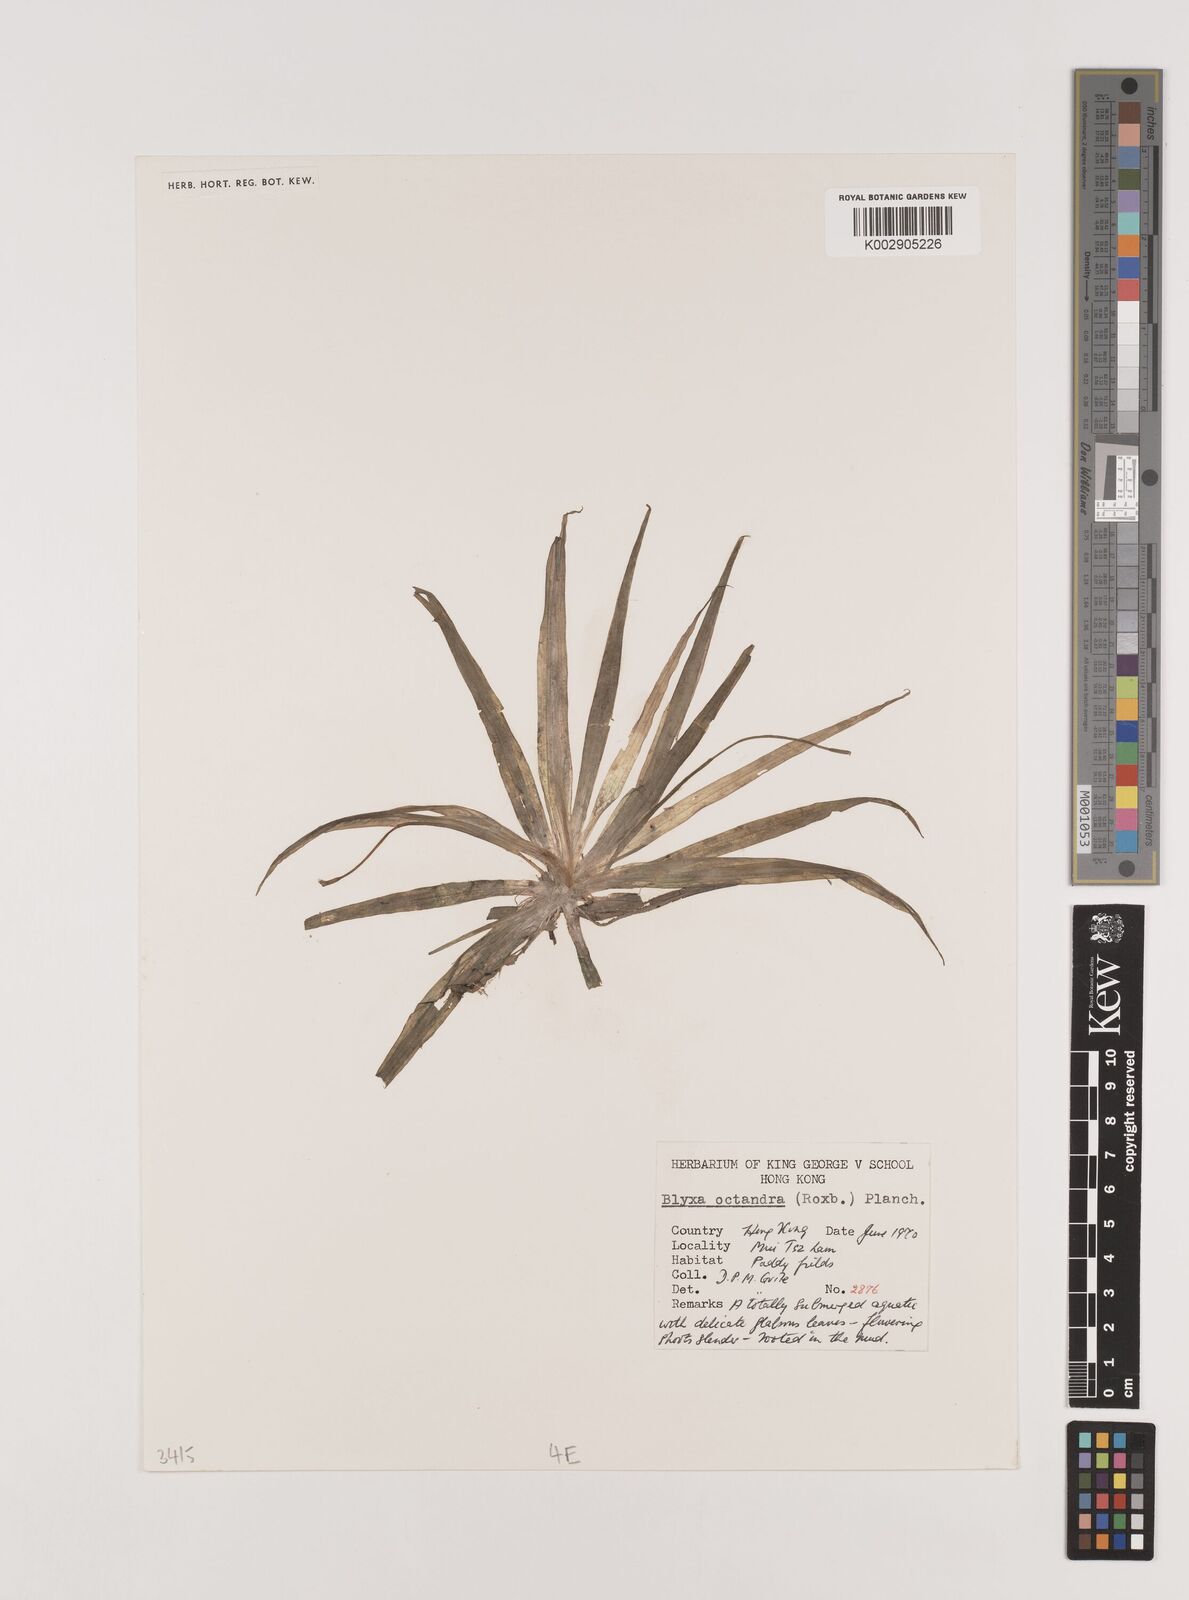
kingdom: Plantae
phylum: Tracheophyta
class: Liliopsida
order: Alismatales
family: Hydrocharitaceae
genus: Blyxa
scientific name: Blyxa octandra
